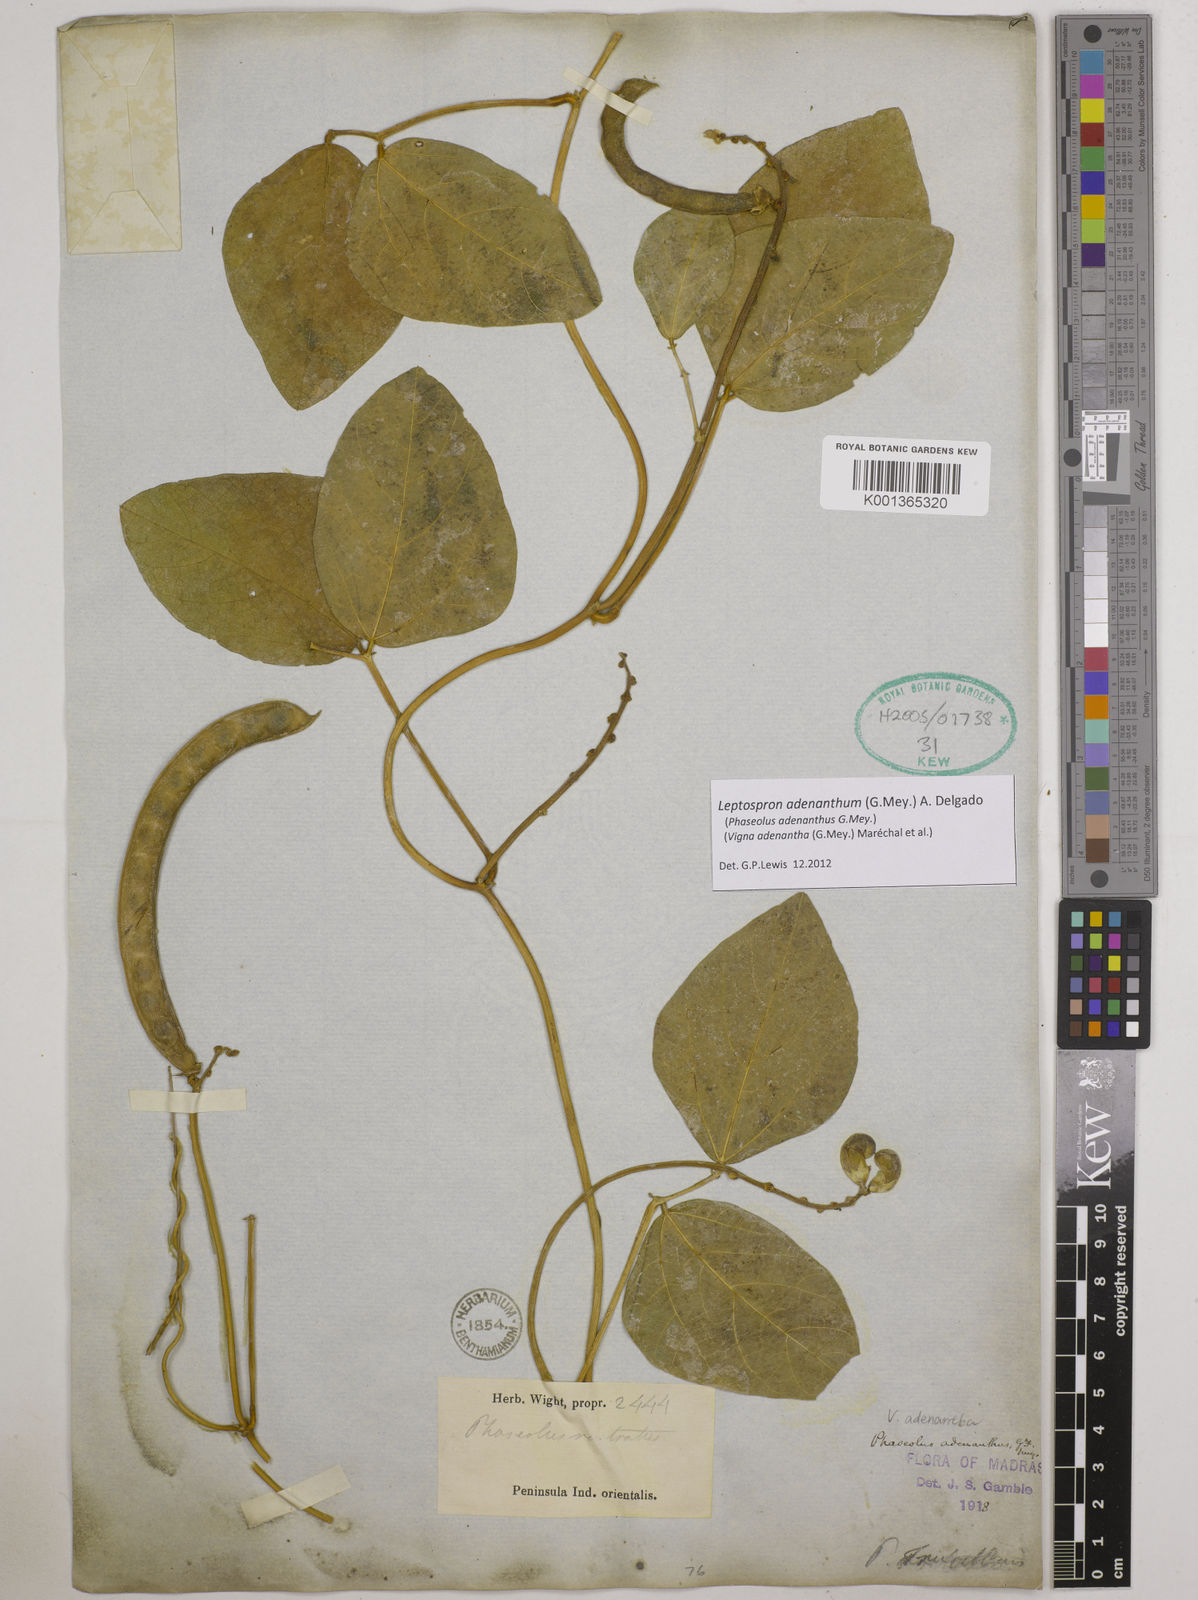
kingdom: Plantae
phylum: Tracheophyta
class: Magnoliopsida
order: Fabales
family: Fabaceae
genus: Leptospron
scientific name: Leptospron adenanthum
